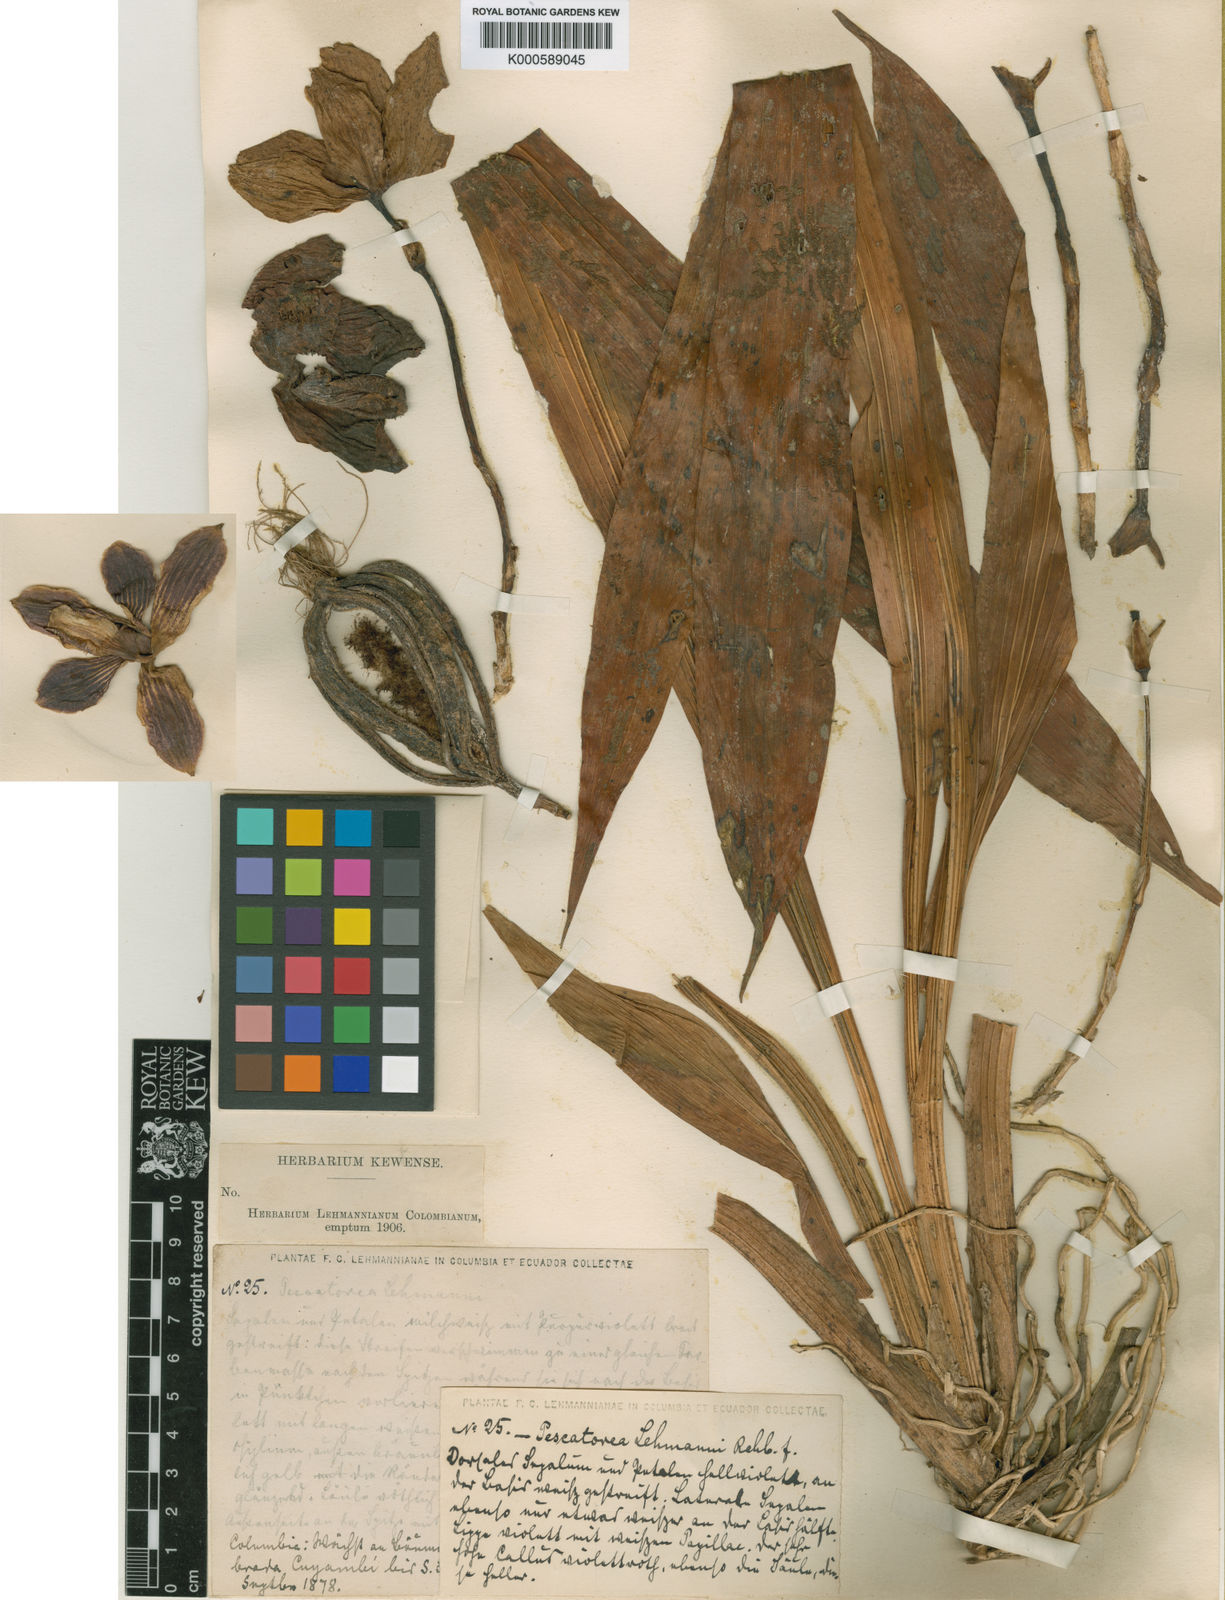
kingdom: Plantae
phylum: Tracheophyta
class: Liliopsida
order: Asparagales
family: Orchidaceae
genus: Pescatoria
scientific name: Pescatoria lehmannii
